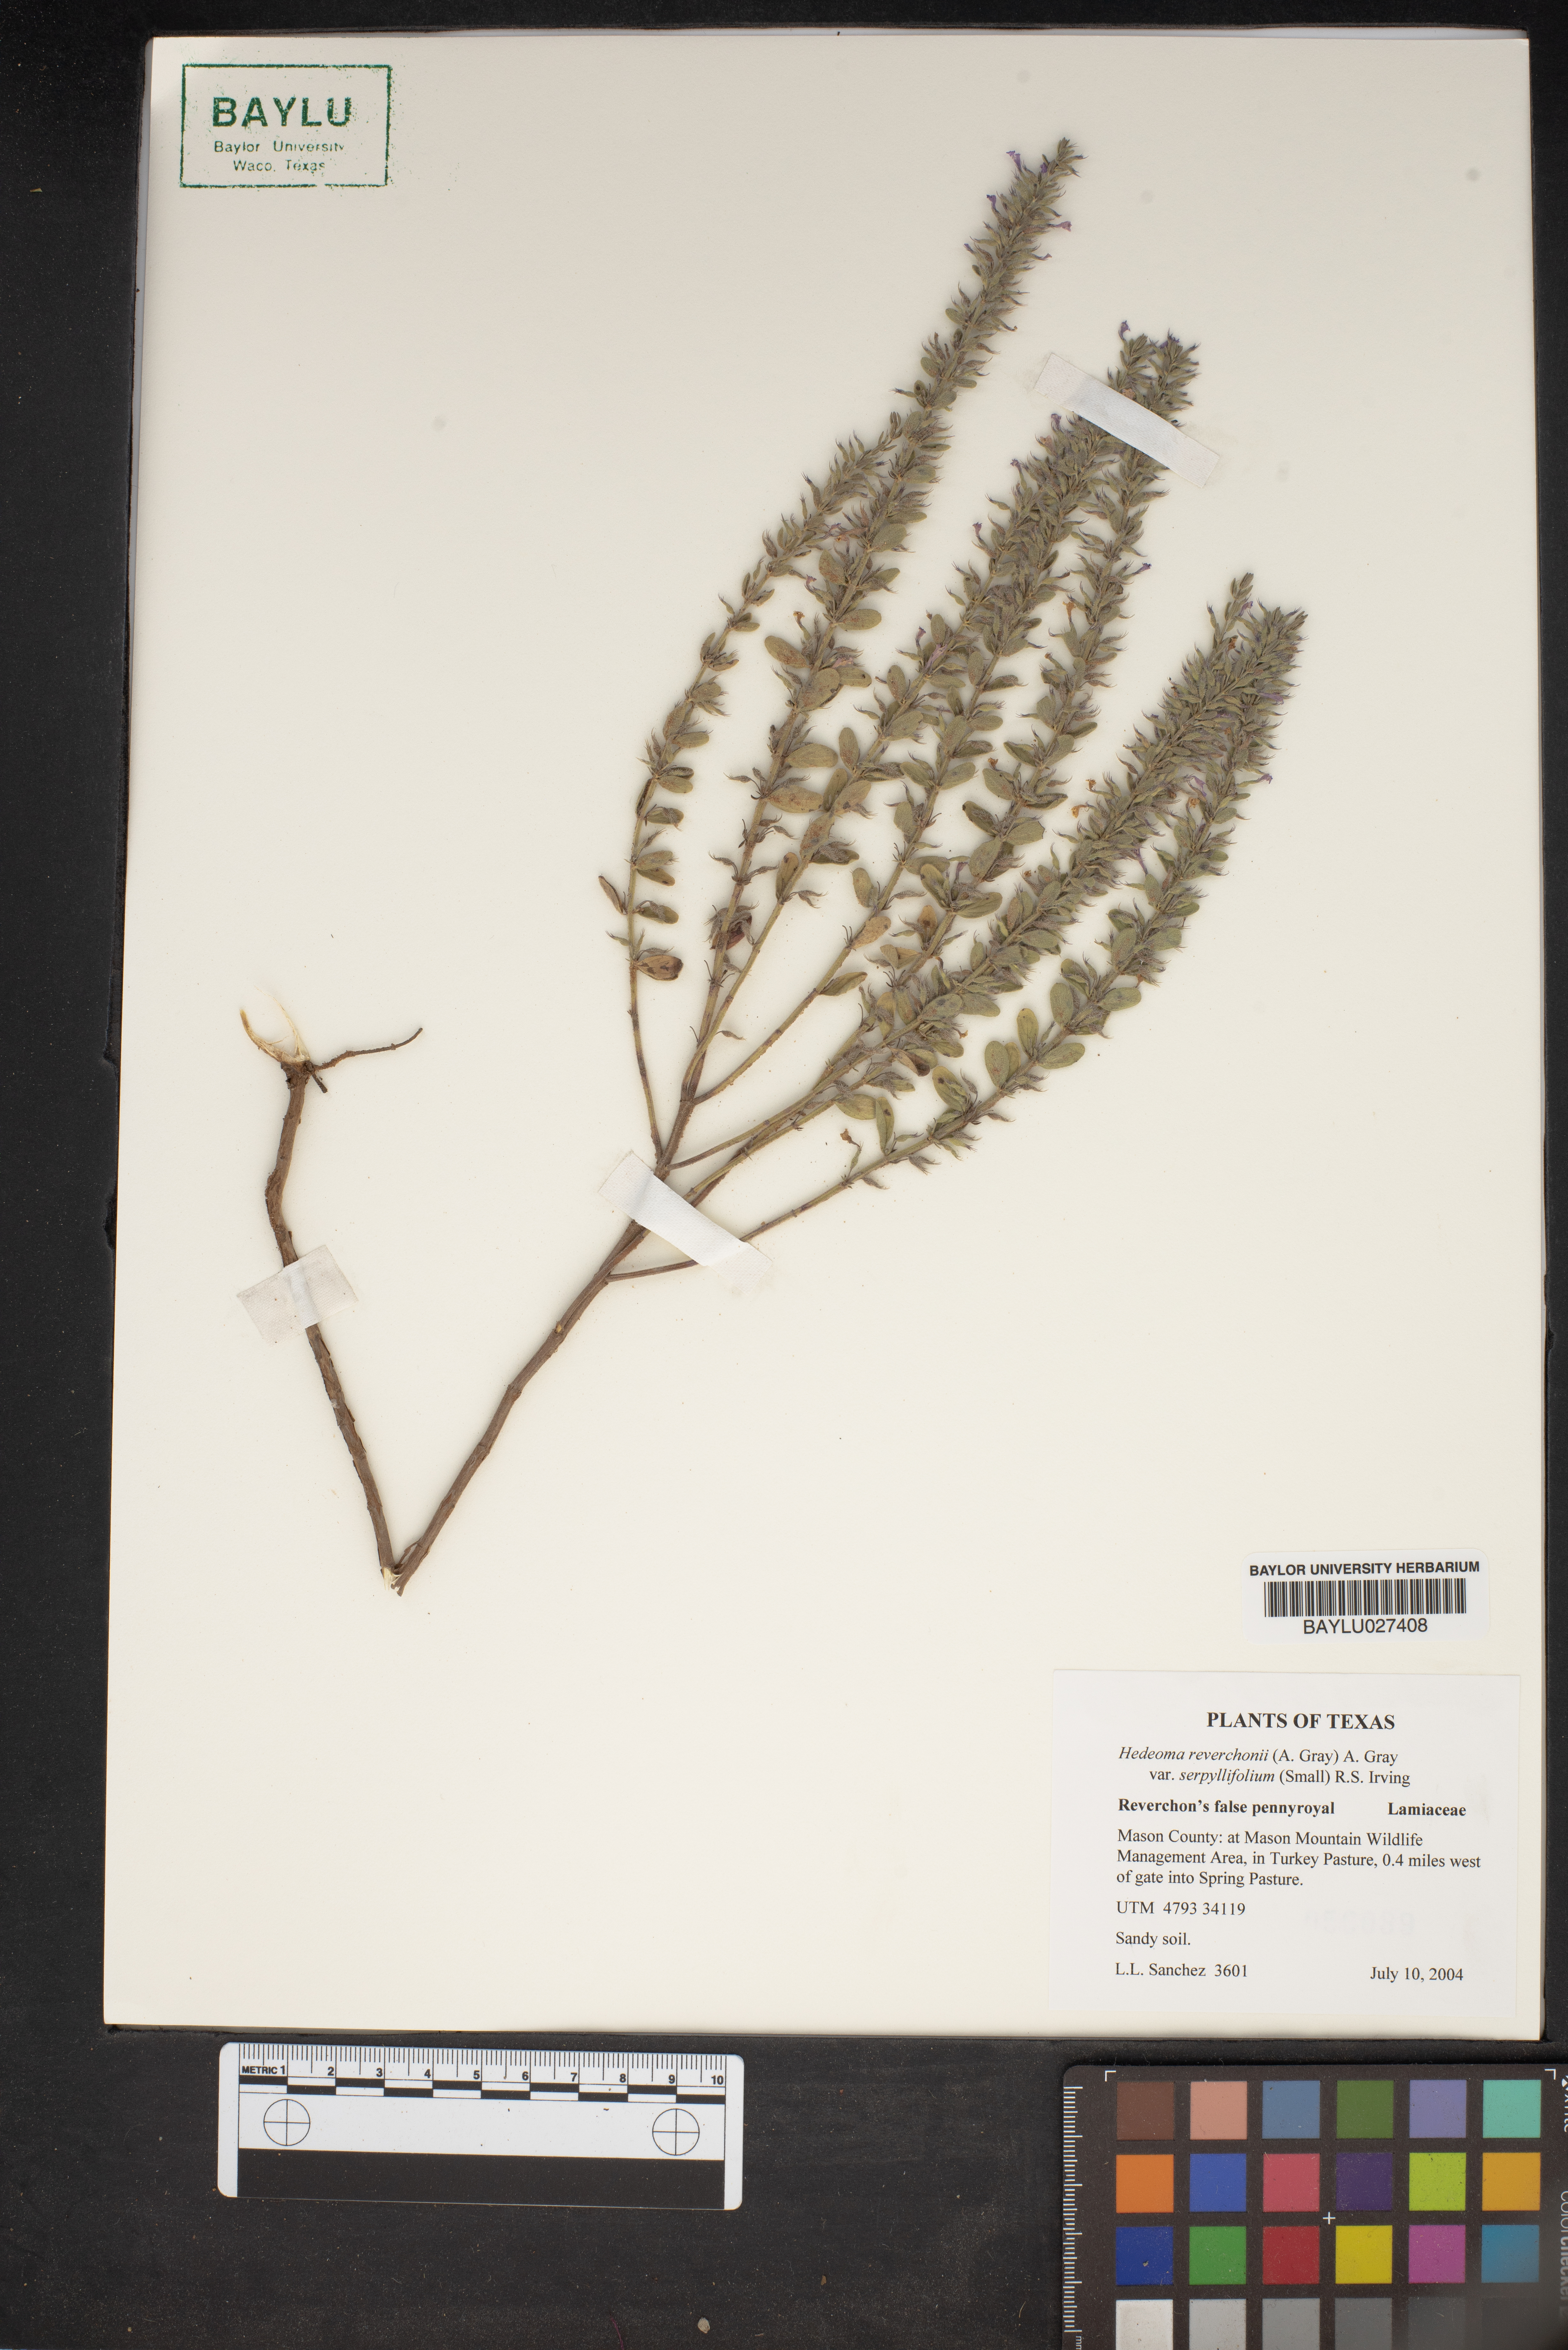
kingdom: Plantae
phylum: Tracheophyta
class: Magnoliopsida
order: Lamiales
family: Lamiaceae
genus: Hedeoma
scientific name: Hedeoma serpyllifolia
